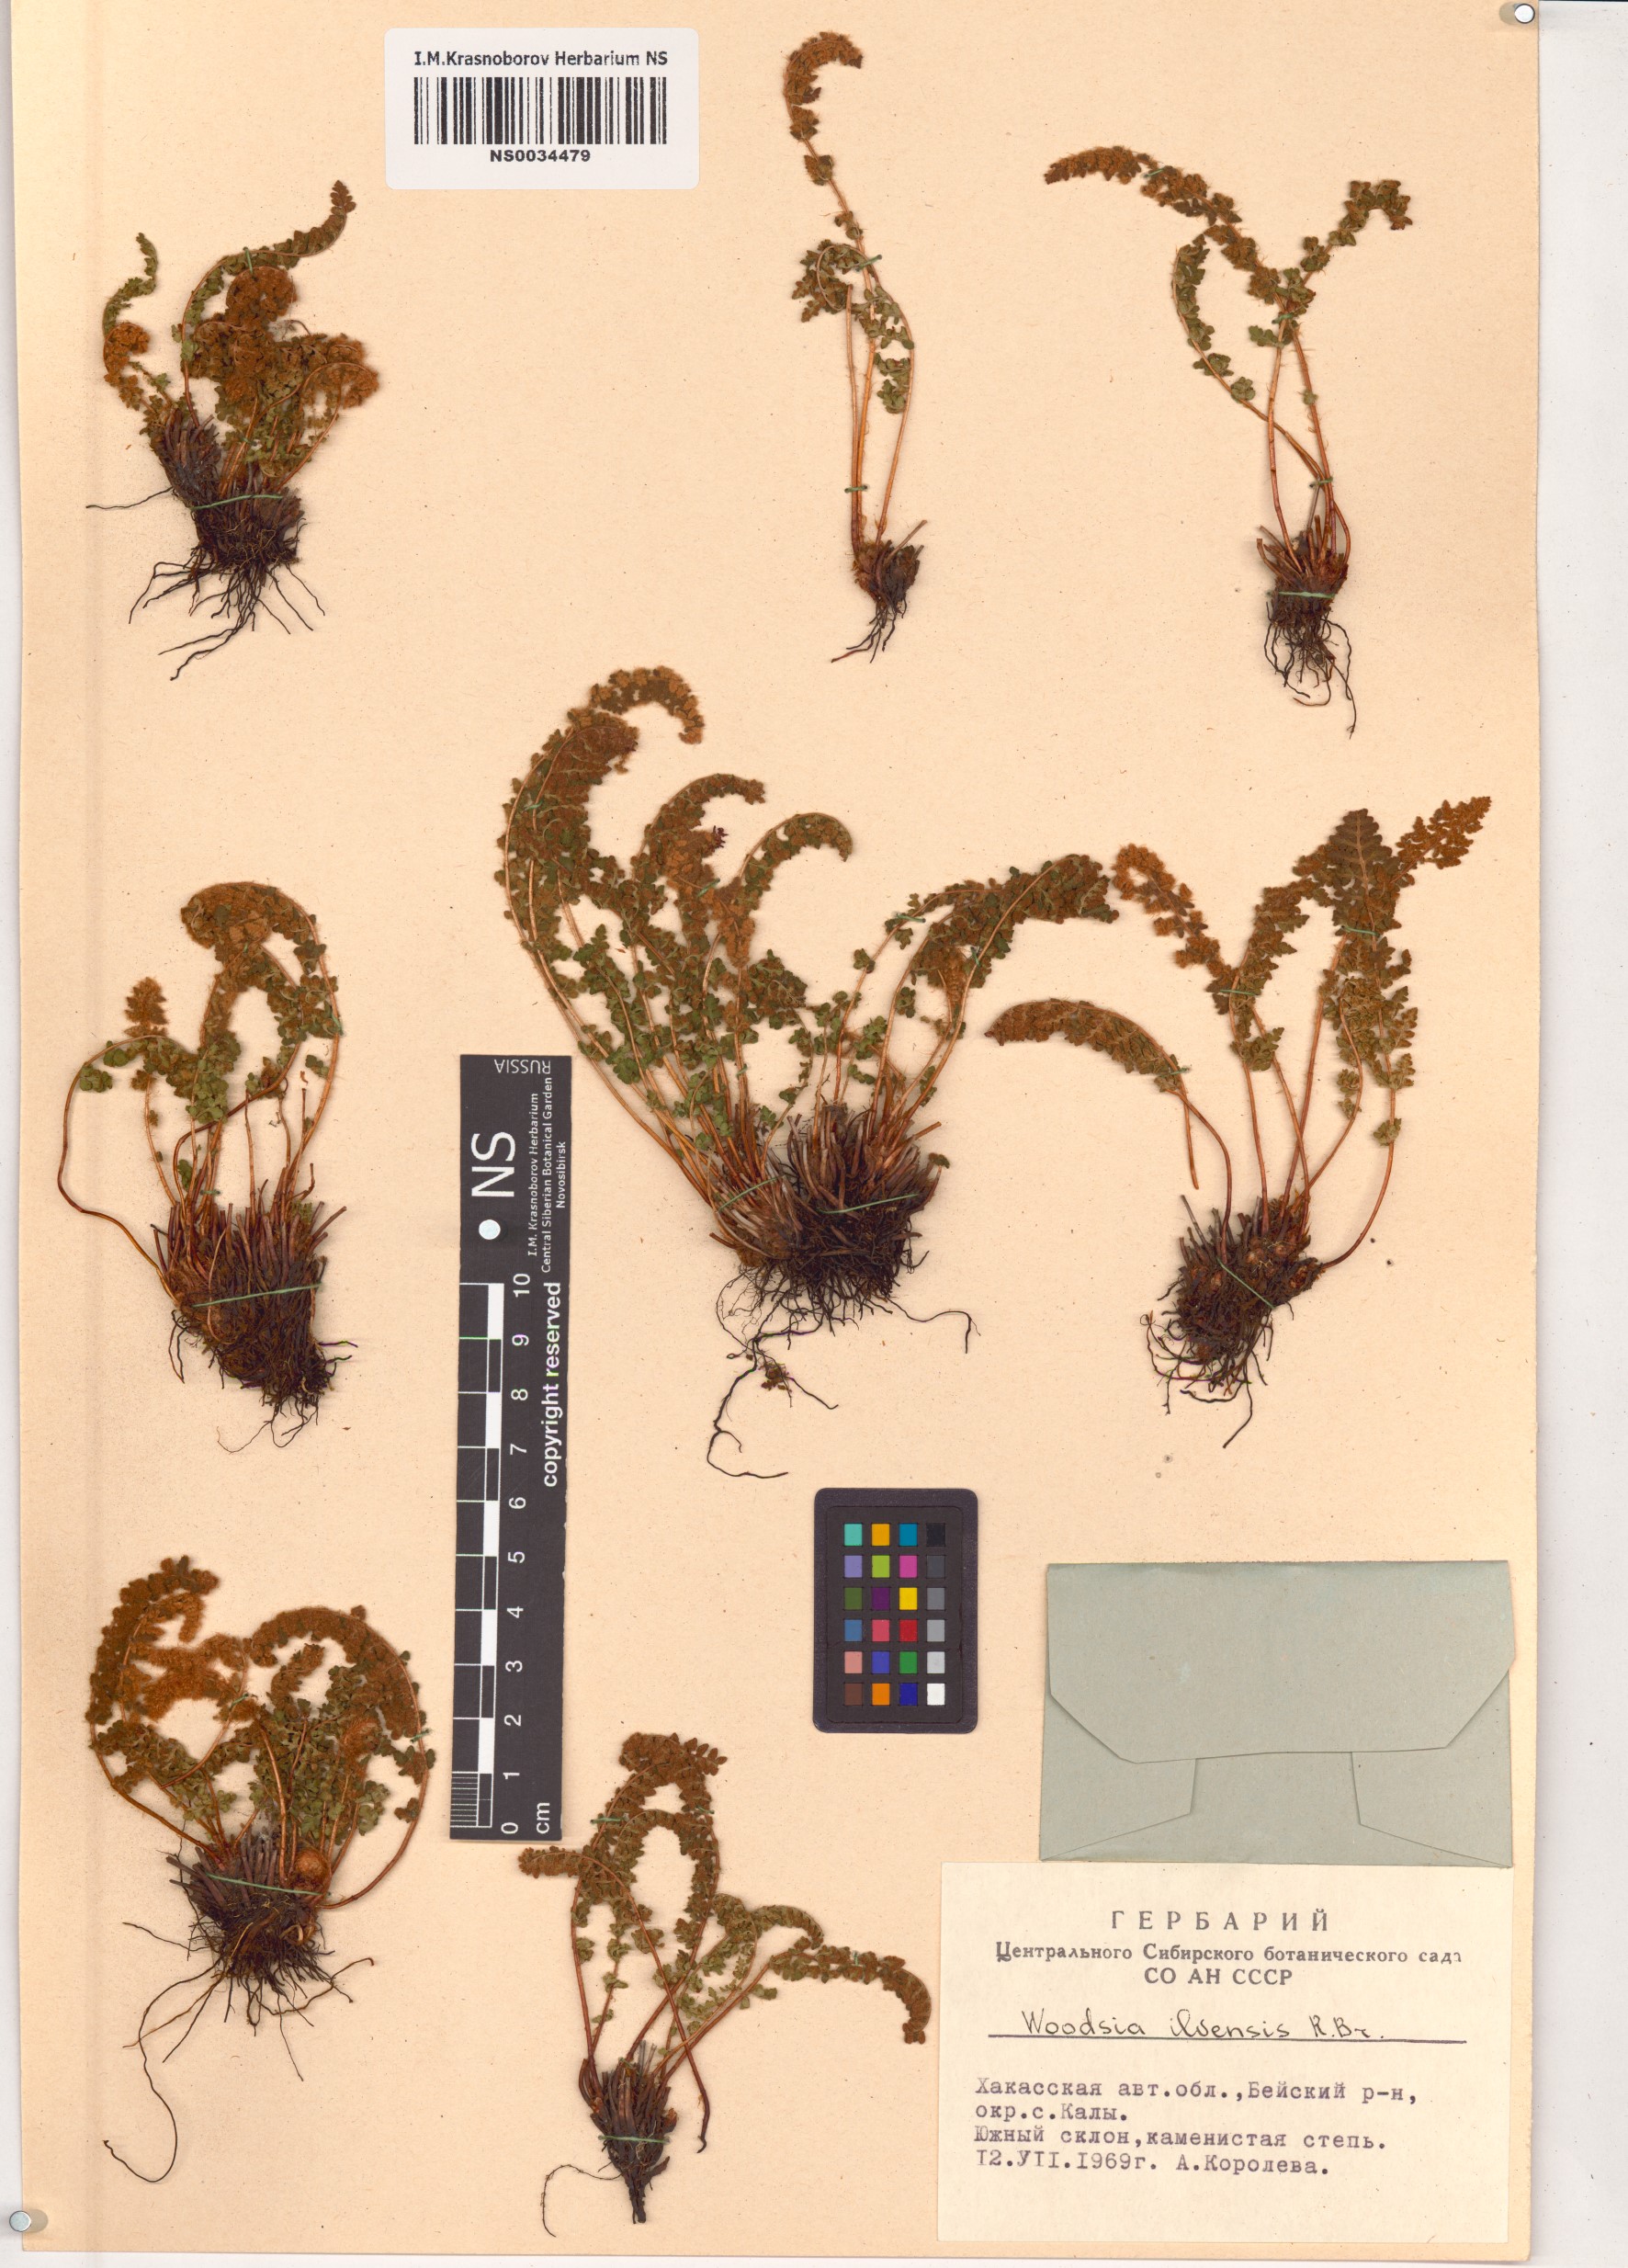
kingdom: Plantae
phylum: Tracheophyta
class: Polypodiopsida
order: Polypodiales
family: Woodsiaceae
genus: Woodsia
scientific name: Woodsia ilvensis
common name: Fragrant woodsia
